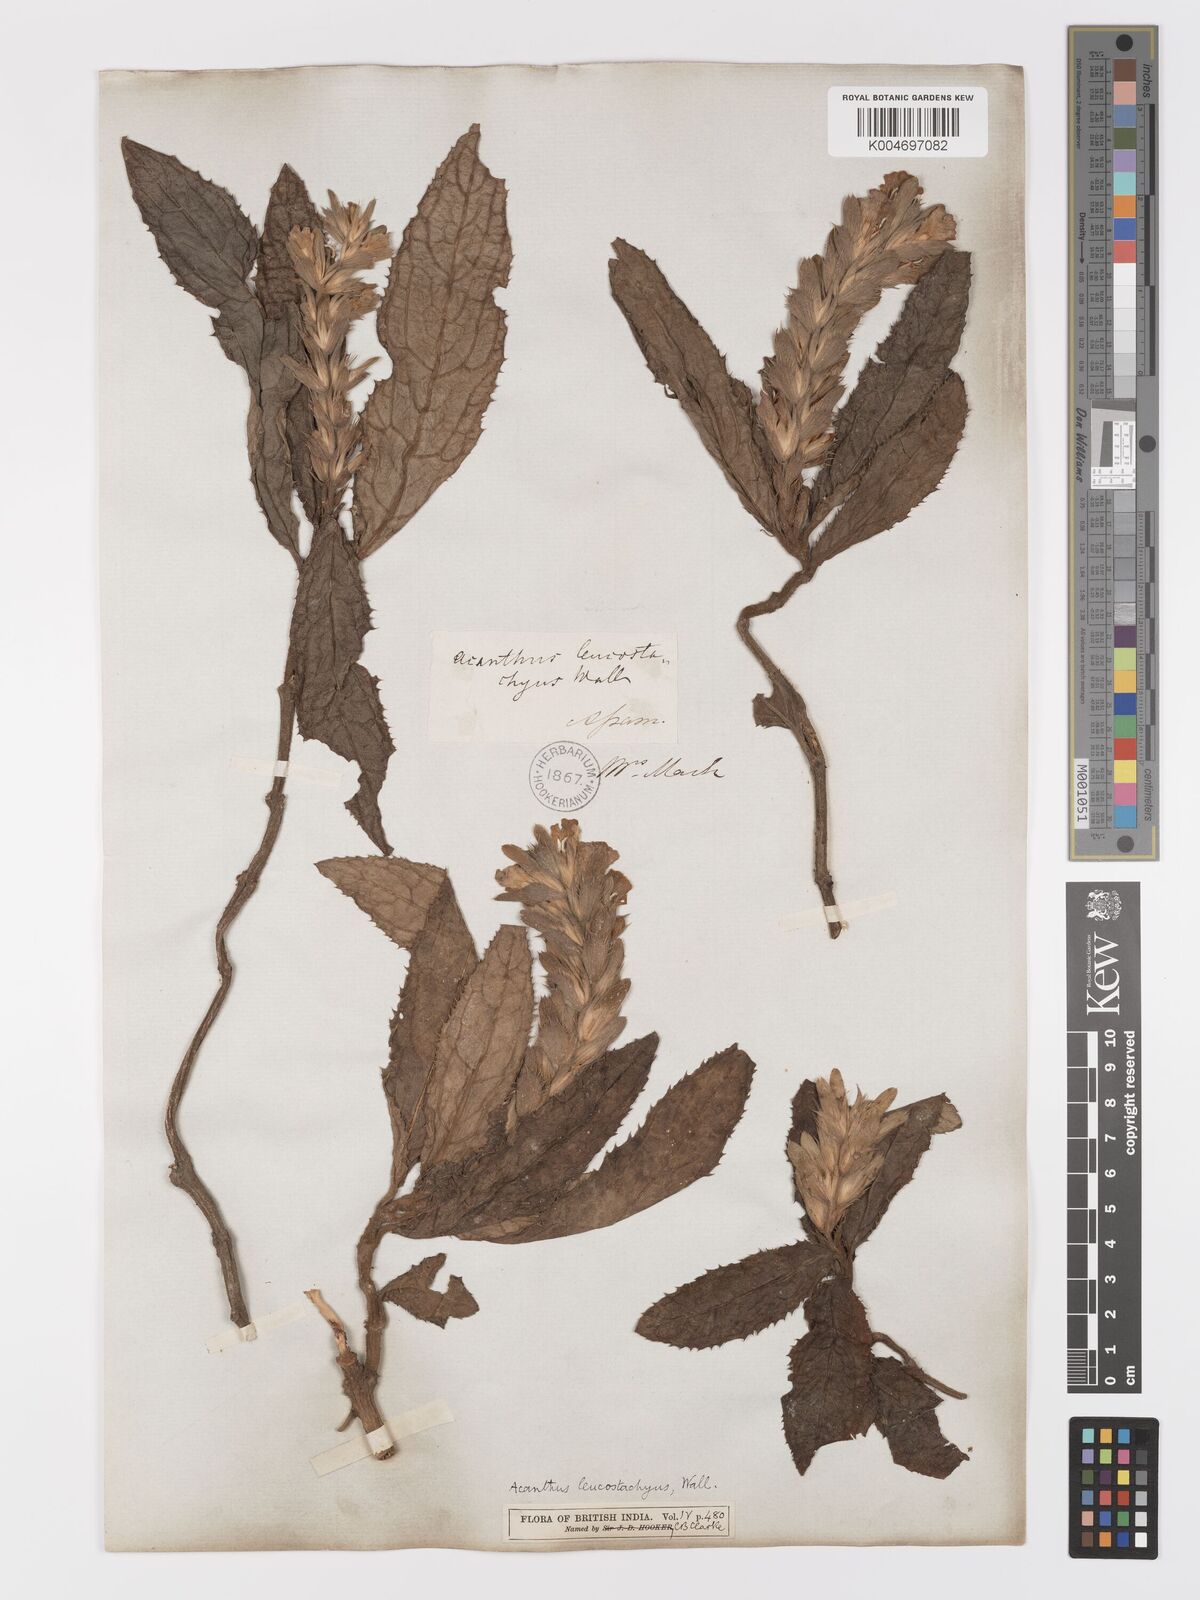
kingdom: Plantae
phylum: Tracheophyta
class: Magnoliopsida
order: Lamiales
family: Acanthaceae
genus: Acanthus
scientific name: Acanthus leucostachyus
